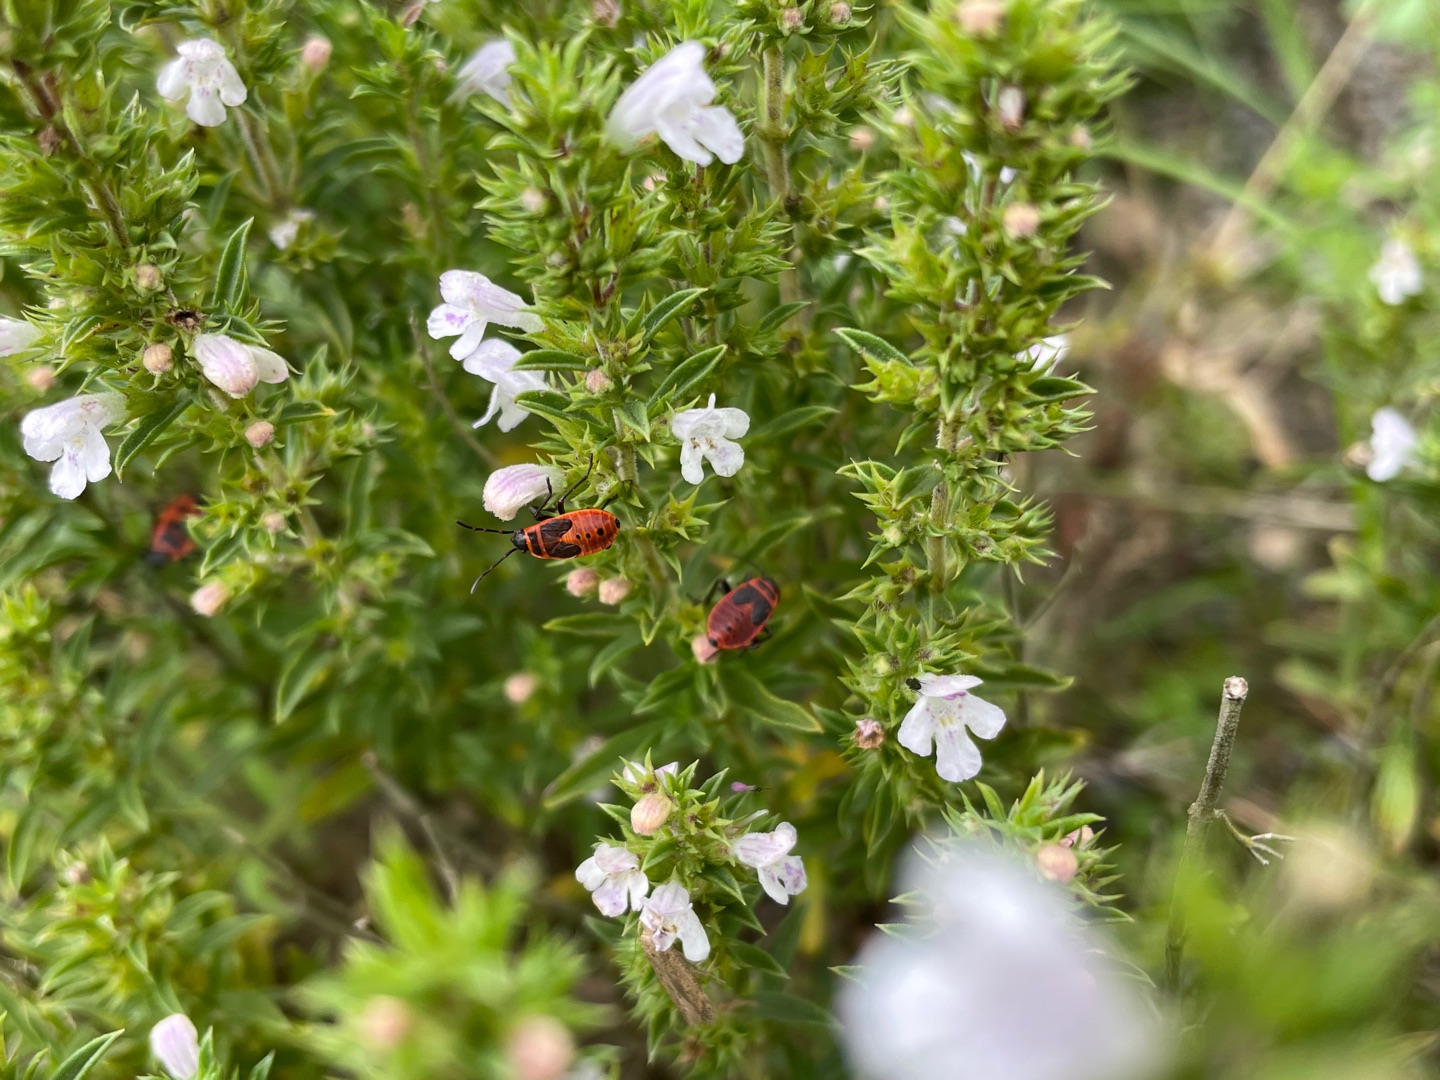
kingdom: Animalia
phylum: Arthropoda
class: Insecta
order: Hemiptera
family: Pyrrhocoridae
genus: Pyrrhocoris
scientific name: Pyrrhocoris apterus
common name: Ildtæge
